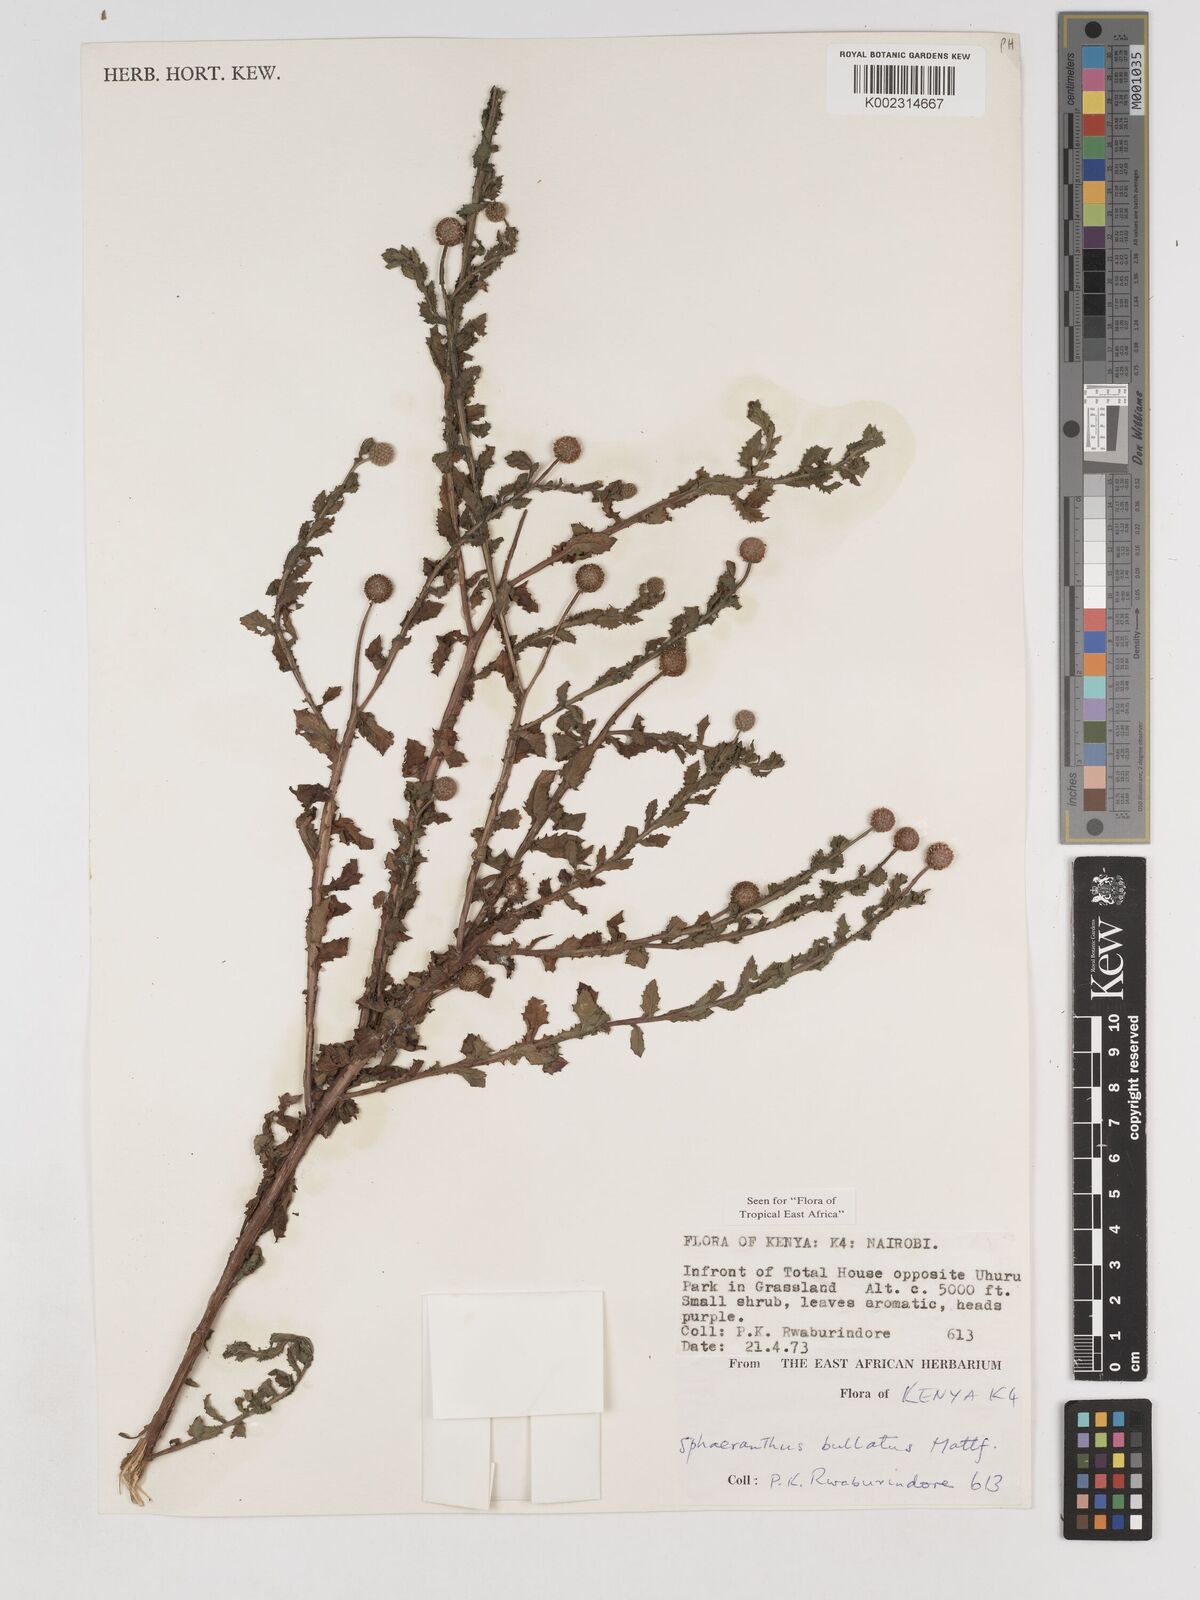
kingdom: Plantae
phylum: Tracheophyta
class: Magnoliopsida
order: Asterales
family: Asteraceae
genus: Sphaeranthus
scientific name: Sphaeranthus bullatus
